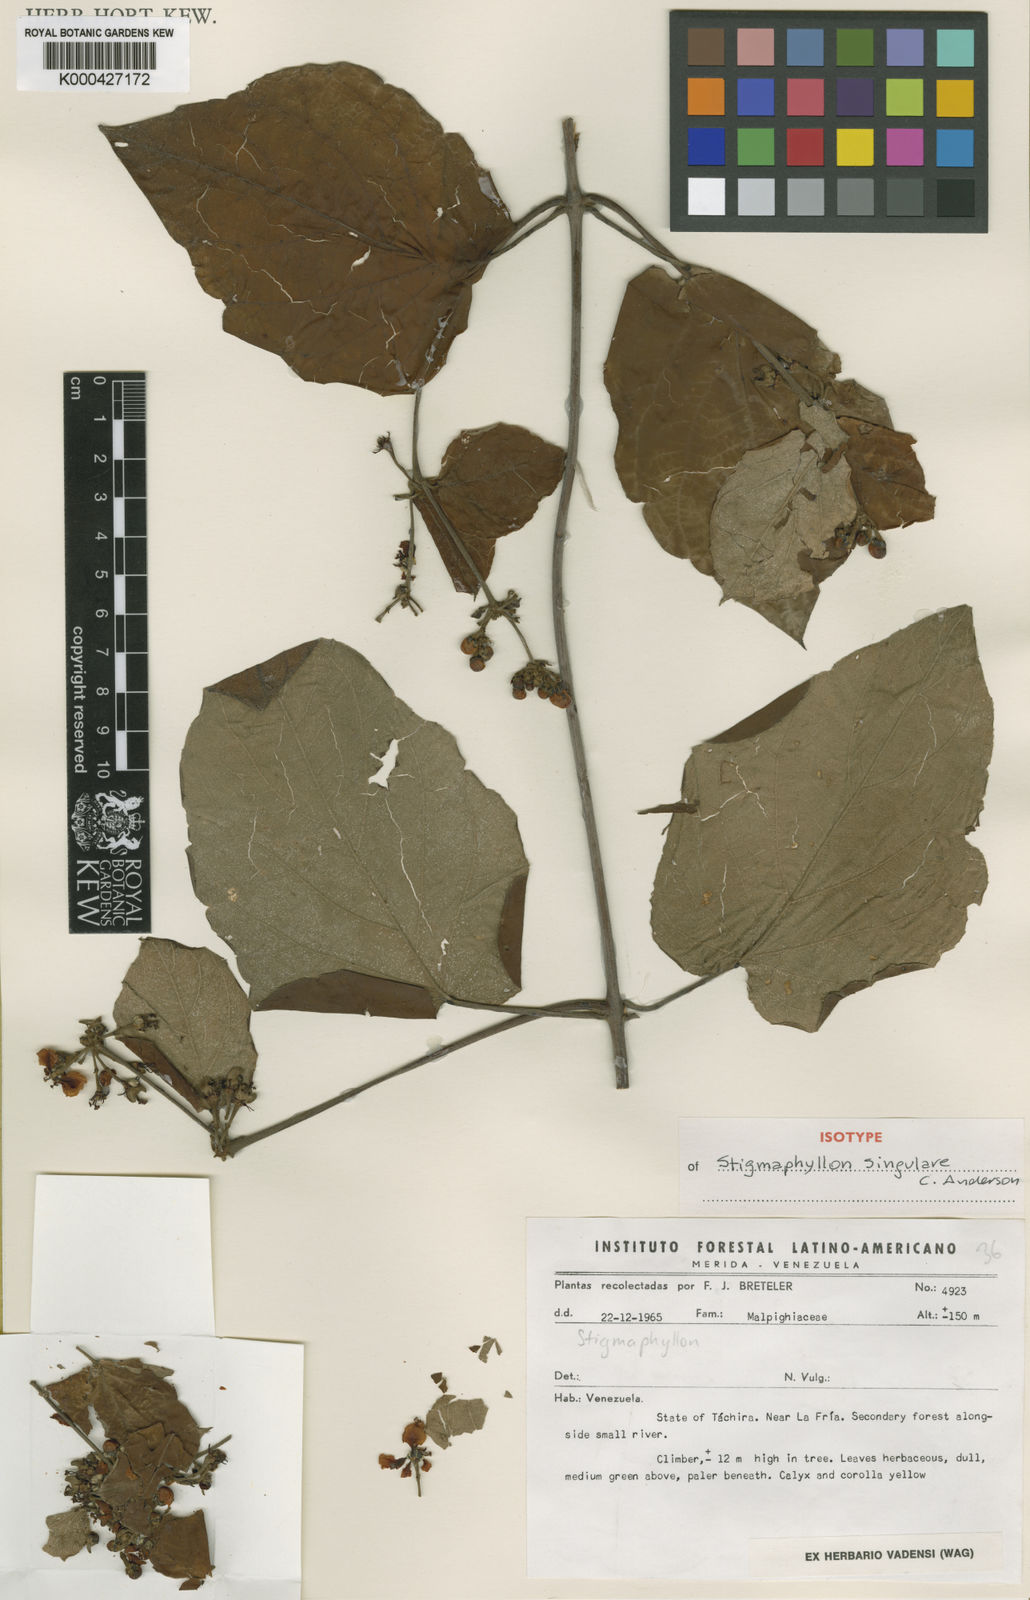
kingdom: Plantae
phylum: Tracheophyta
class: Magnoliopsida
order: Malpighiales
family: Malpighiaceae
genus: Stigmaphyllon
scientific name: Stigmaphyllon singulare
